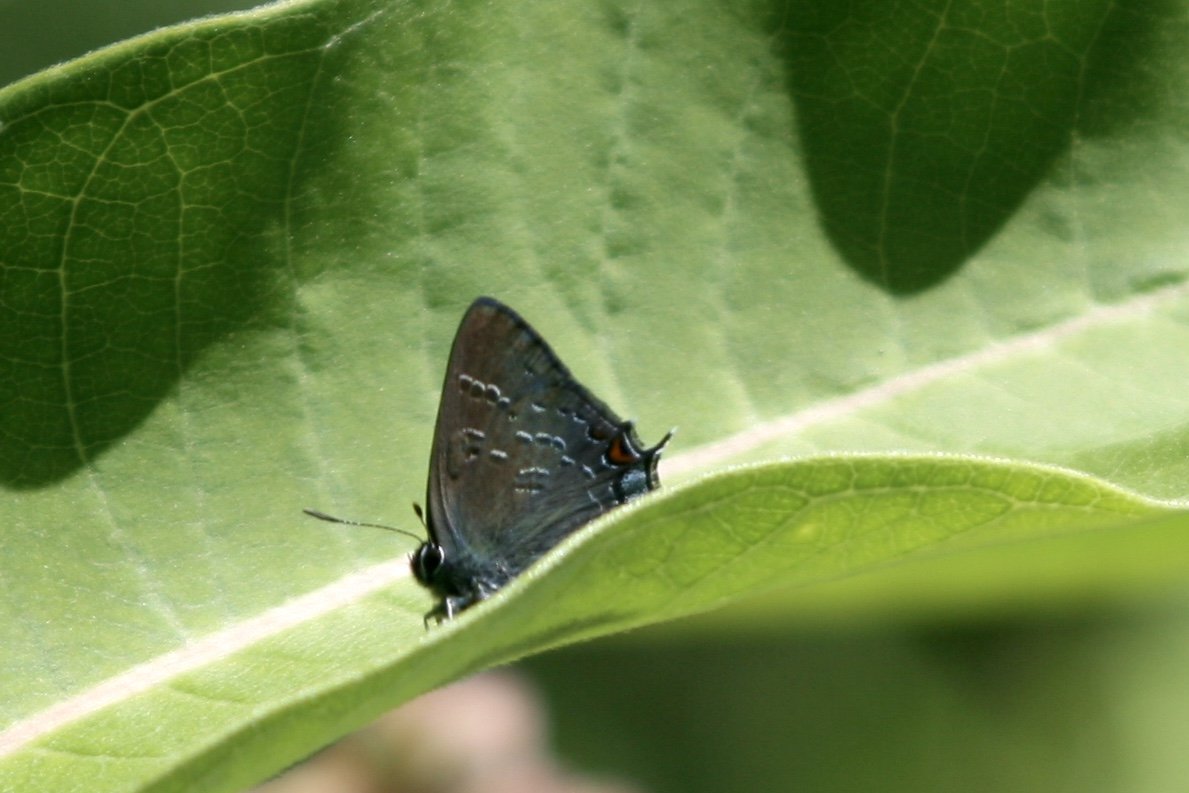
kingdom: Animalia
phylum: Arthropoda
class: Insecta
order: Lepidoptera
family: Lycaenidae
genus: Satyrium
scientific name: Satyrium calanus
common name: Banded Hairstreak
